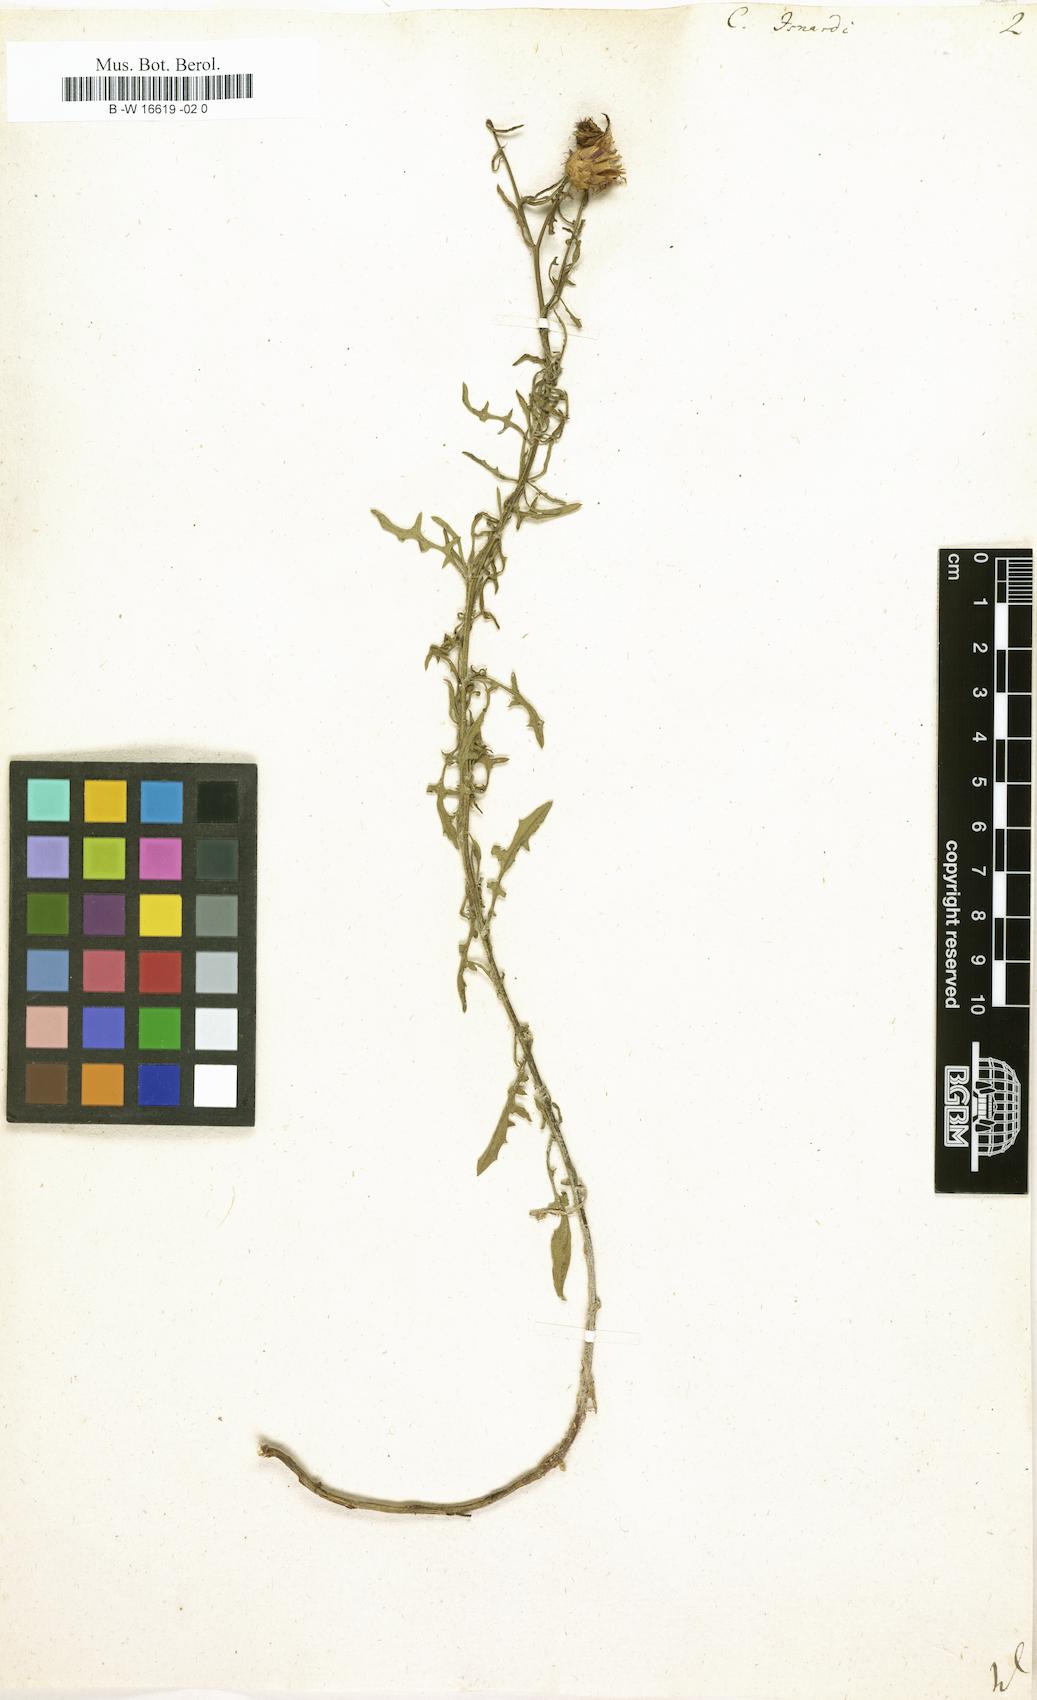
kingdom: Plantae
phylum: Tracheophyta
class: Magnoliopsida
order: Asterales
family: Asteraceae
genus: Centaurea
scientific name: Centaurea aspera
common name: Rough star-thistle
